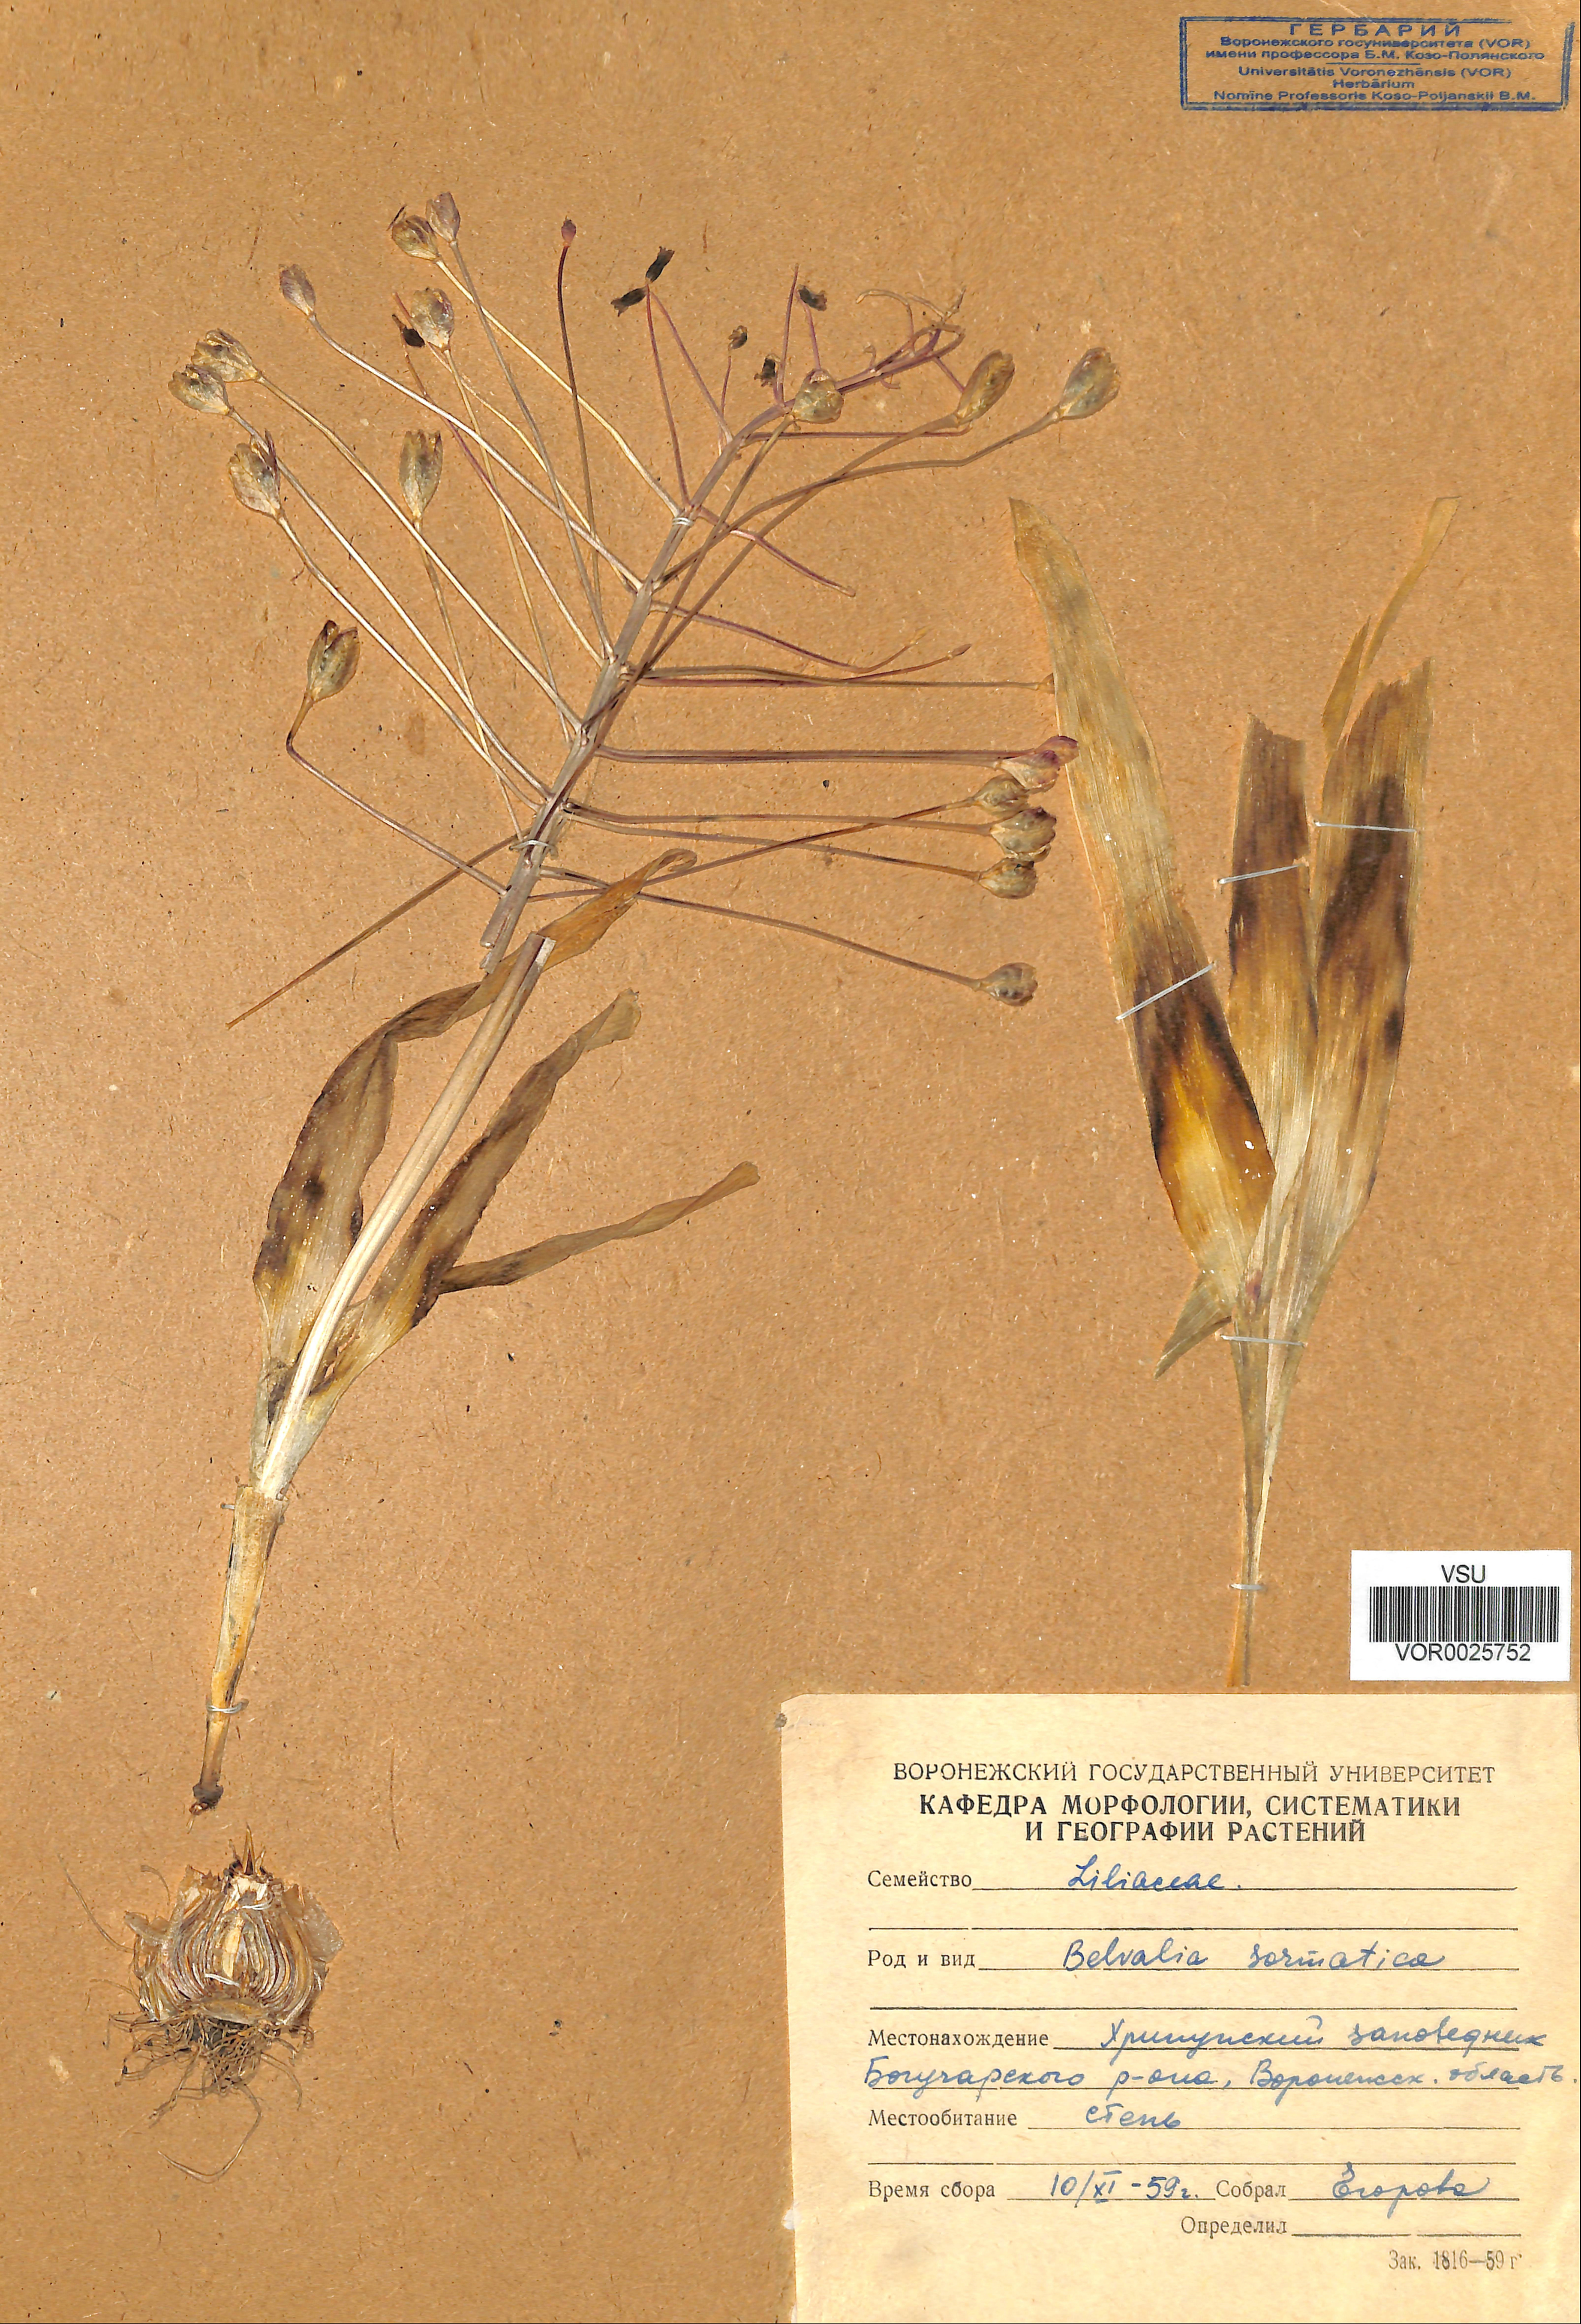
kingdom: Plantae
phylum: Tracheophyta
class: Liliopsida
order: Asparagales
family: Asparagaceae
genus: Bellevalia
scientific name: Bellevalia speciosa
